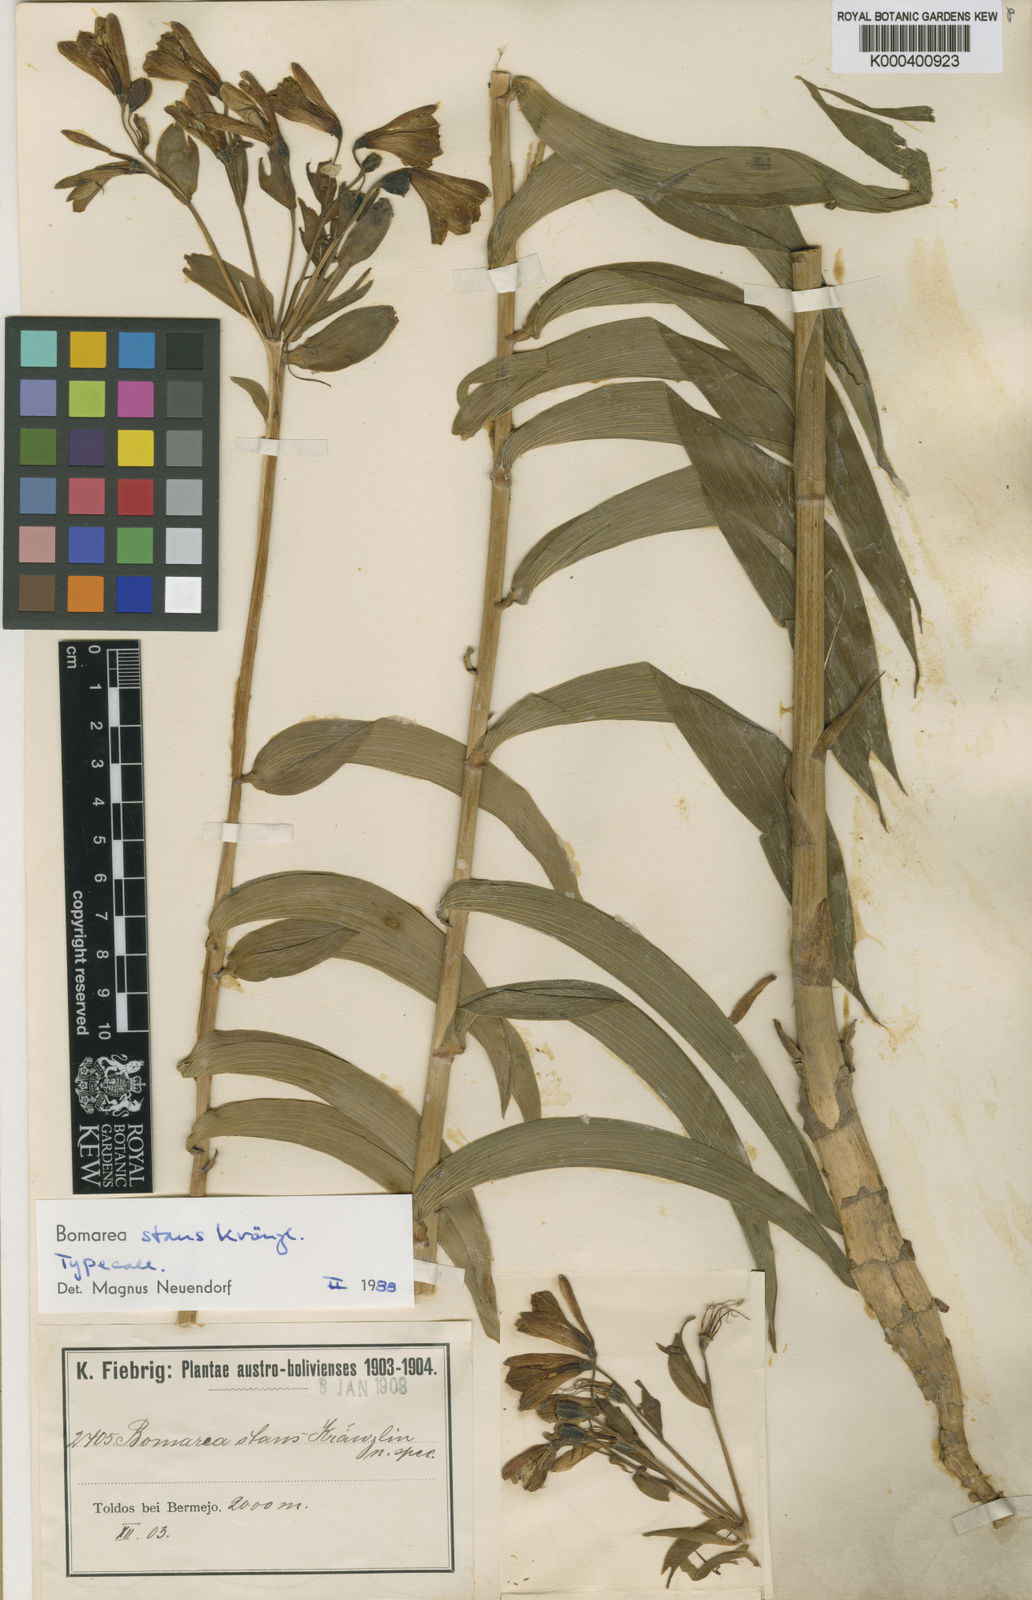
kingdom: Plantae
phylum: Tracheophyta
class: Liliopsida
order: Liliales
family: Alstroemeriaceae
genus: Bomarea
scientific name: Bomarea stans
